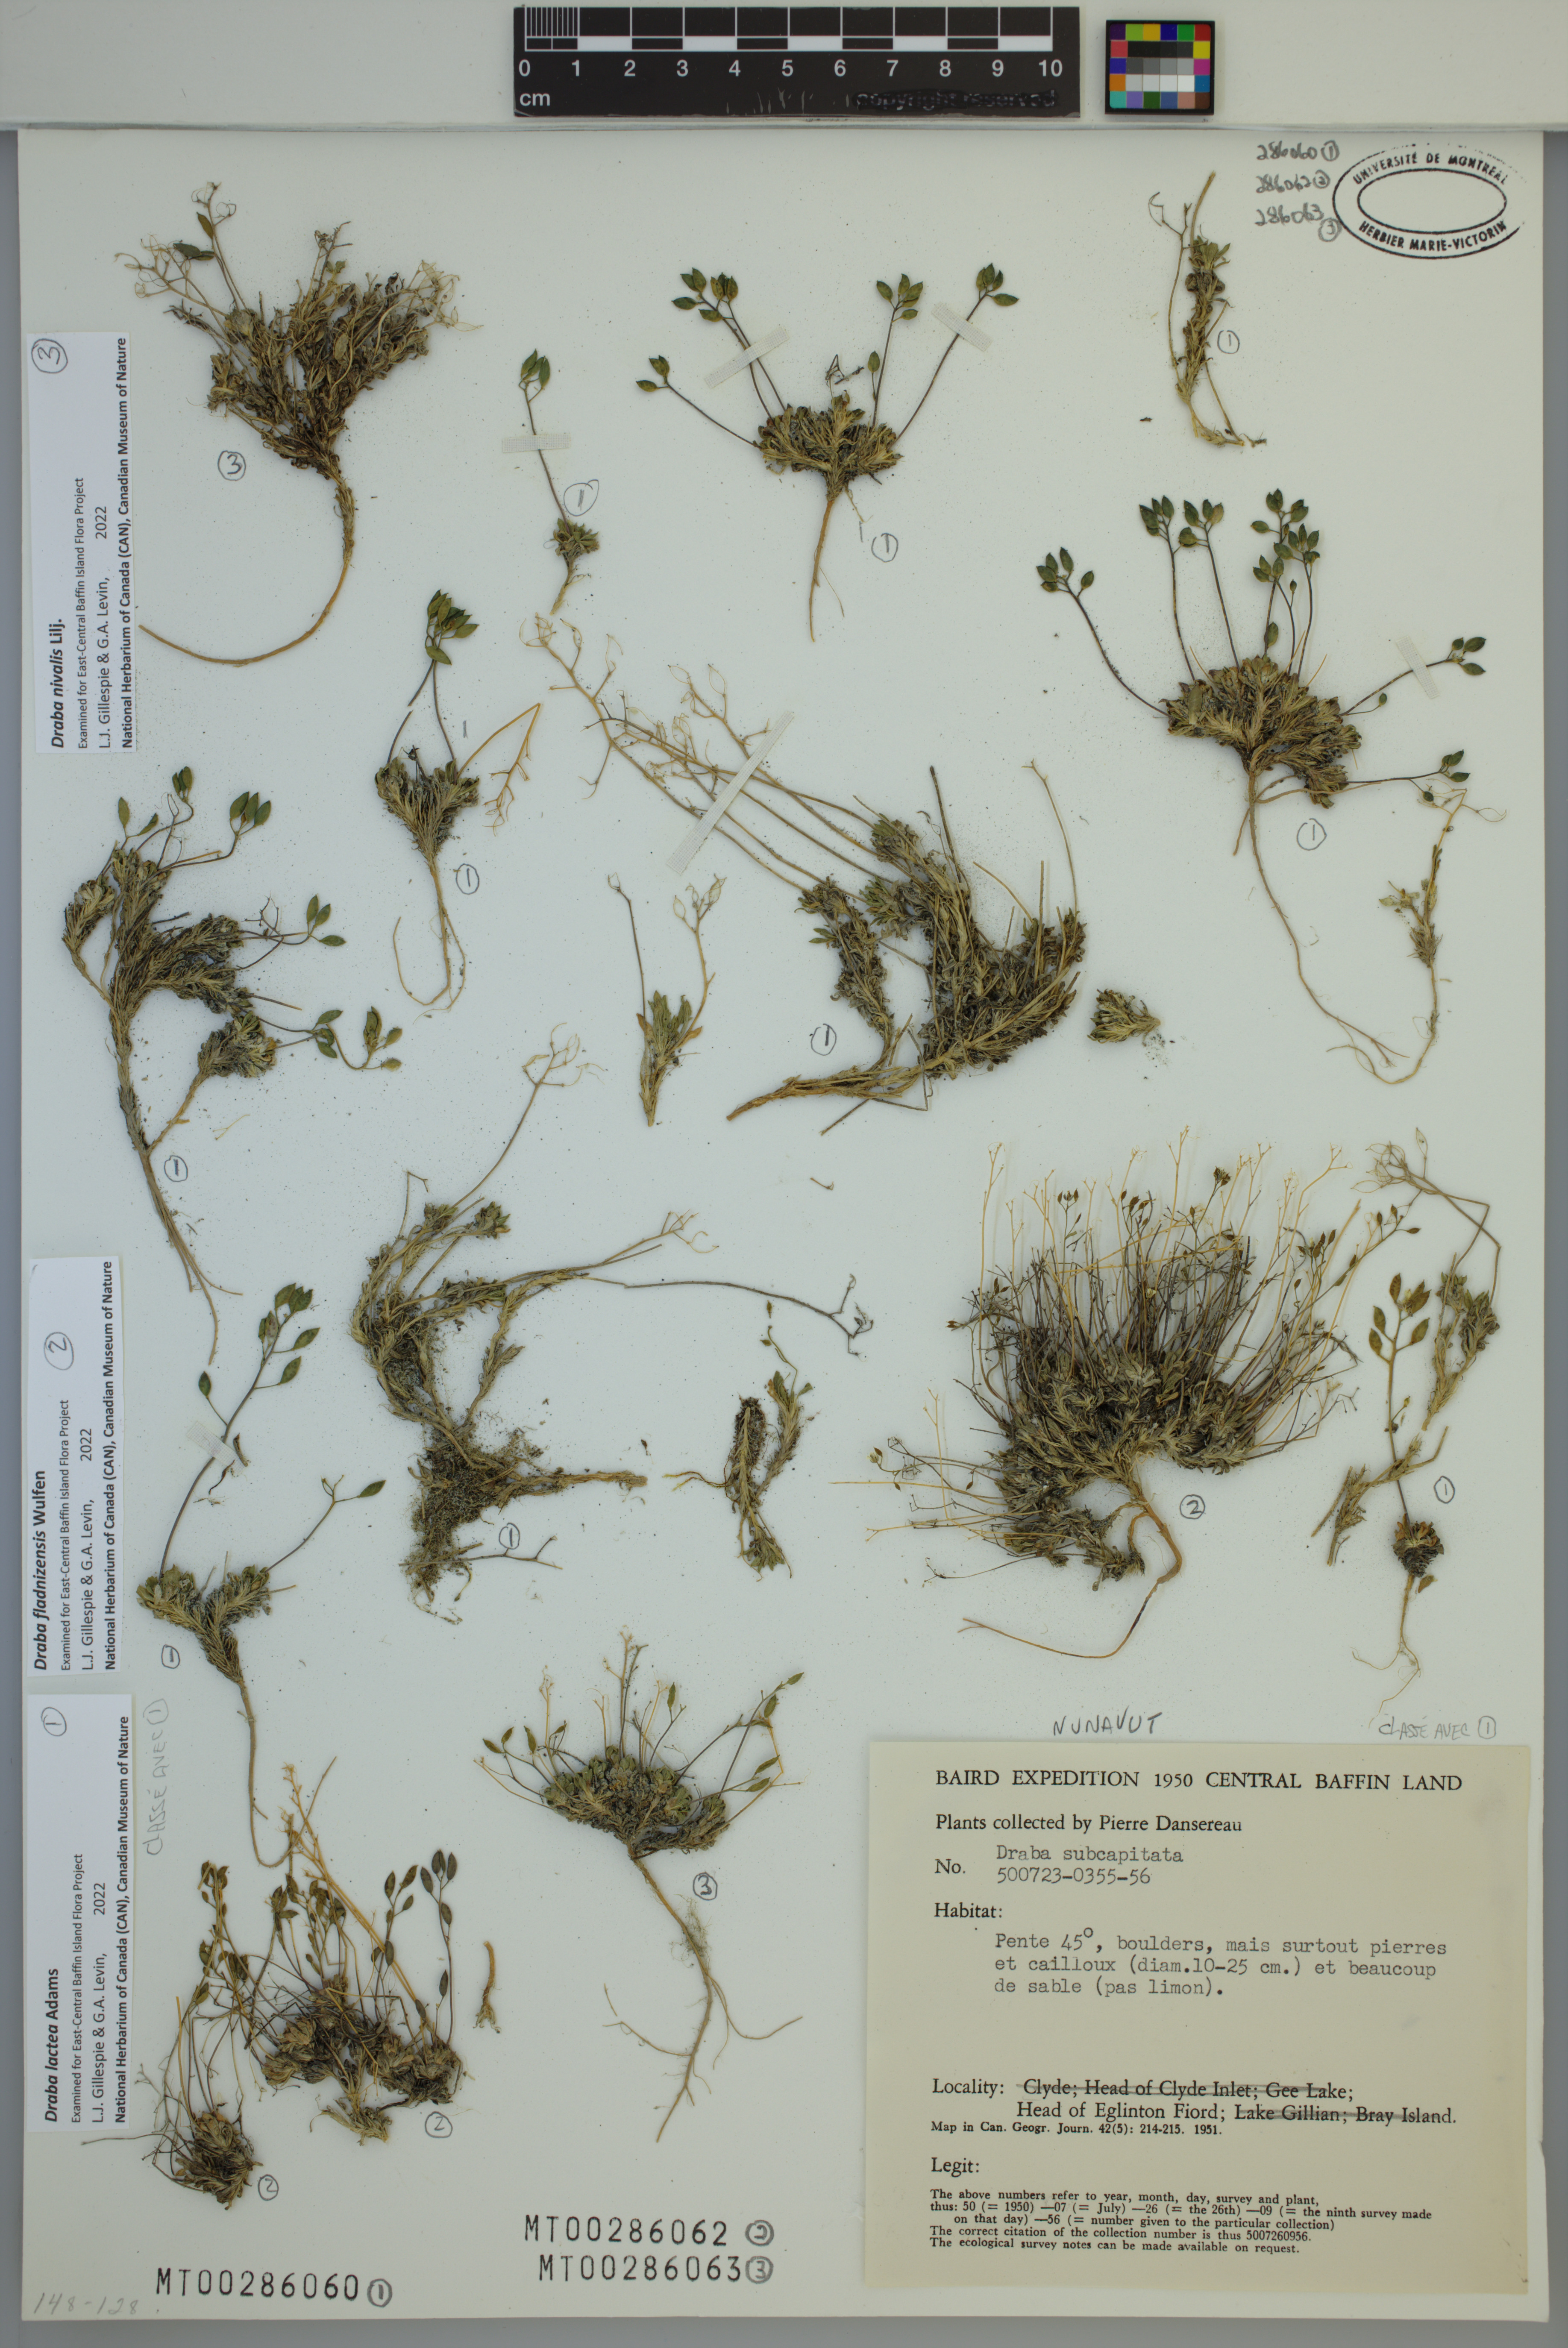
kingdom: Plantae
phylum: Tracheophyta
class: Magnoliopsida
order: Brassicales
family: Brassicaceae
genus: Draba
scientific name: Draba nivalis
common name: Snow draba
